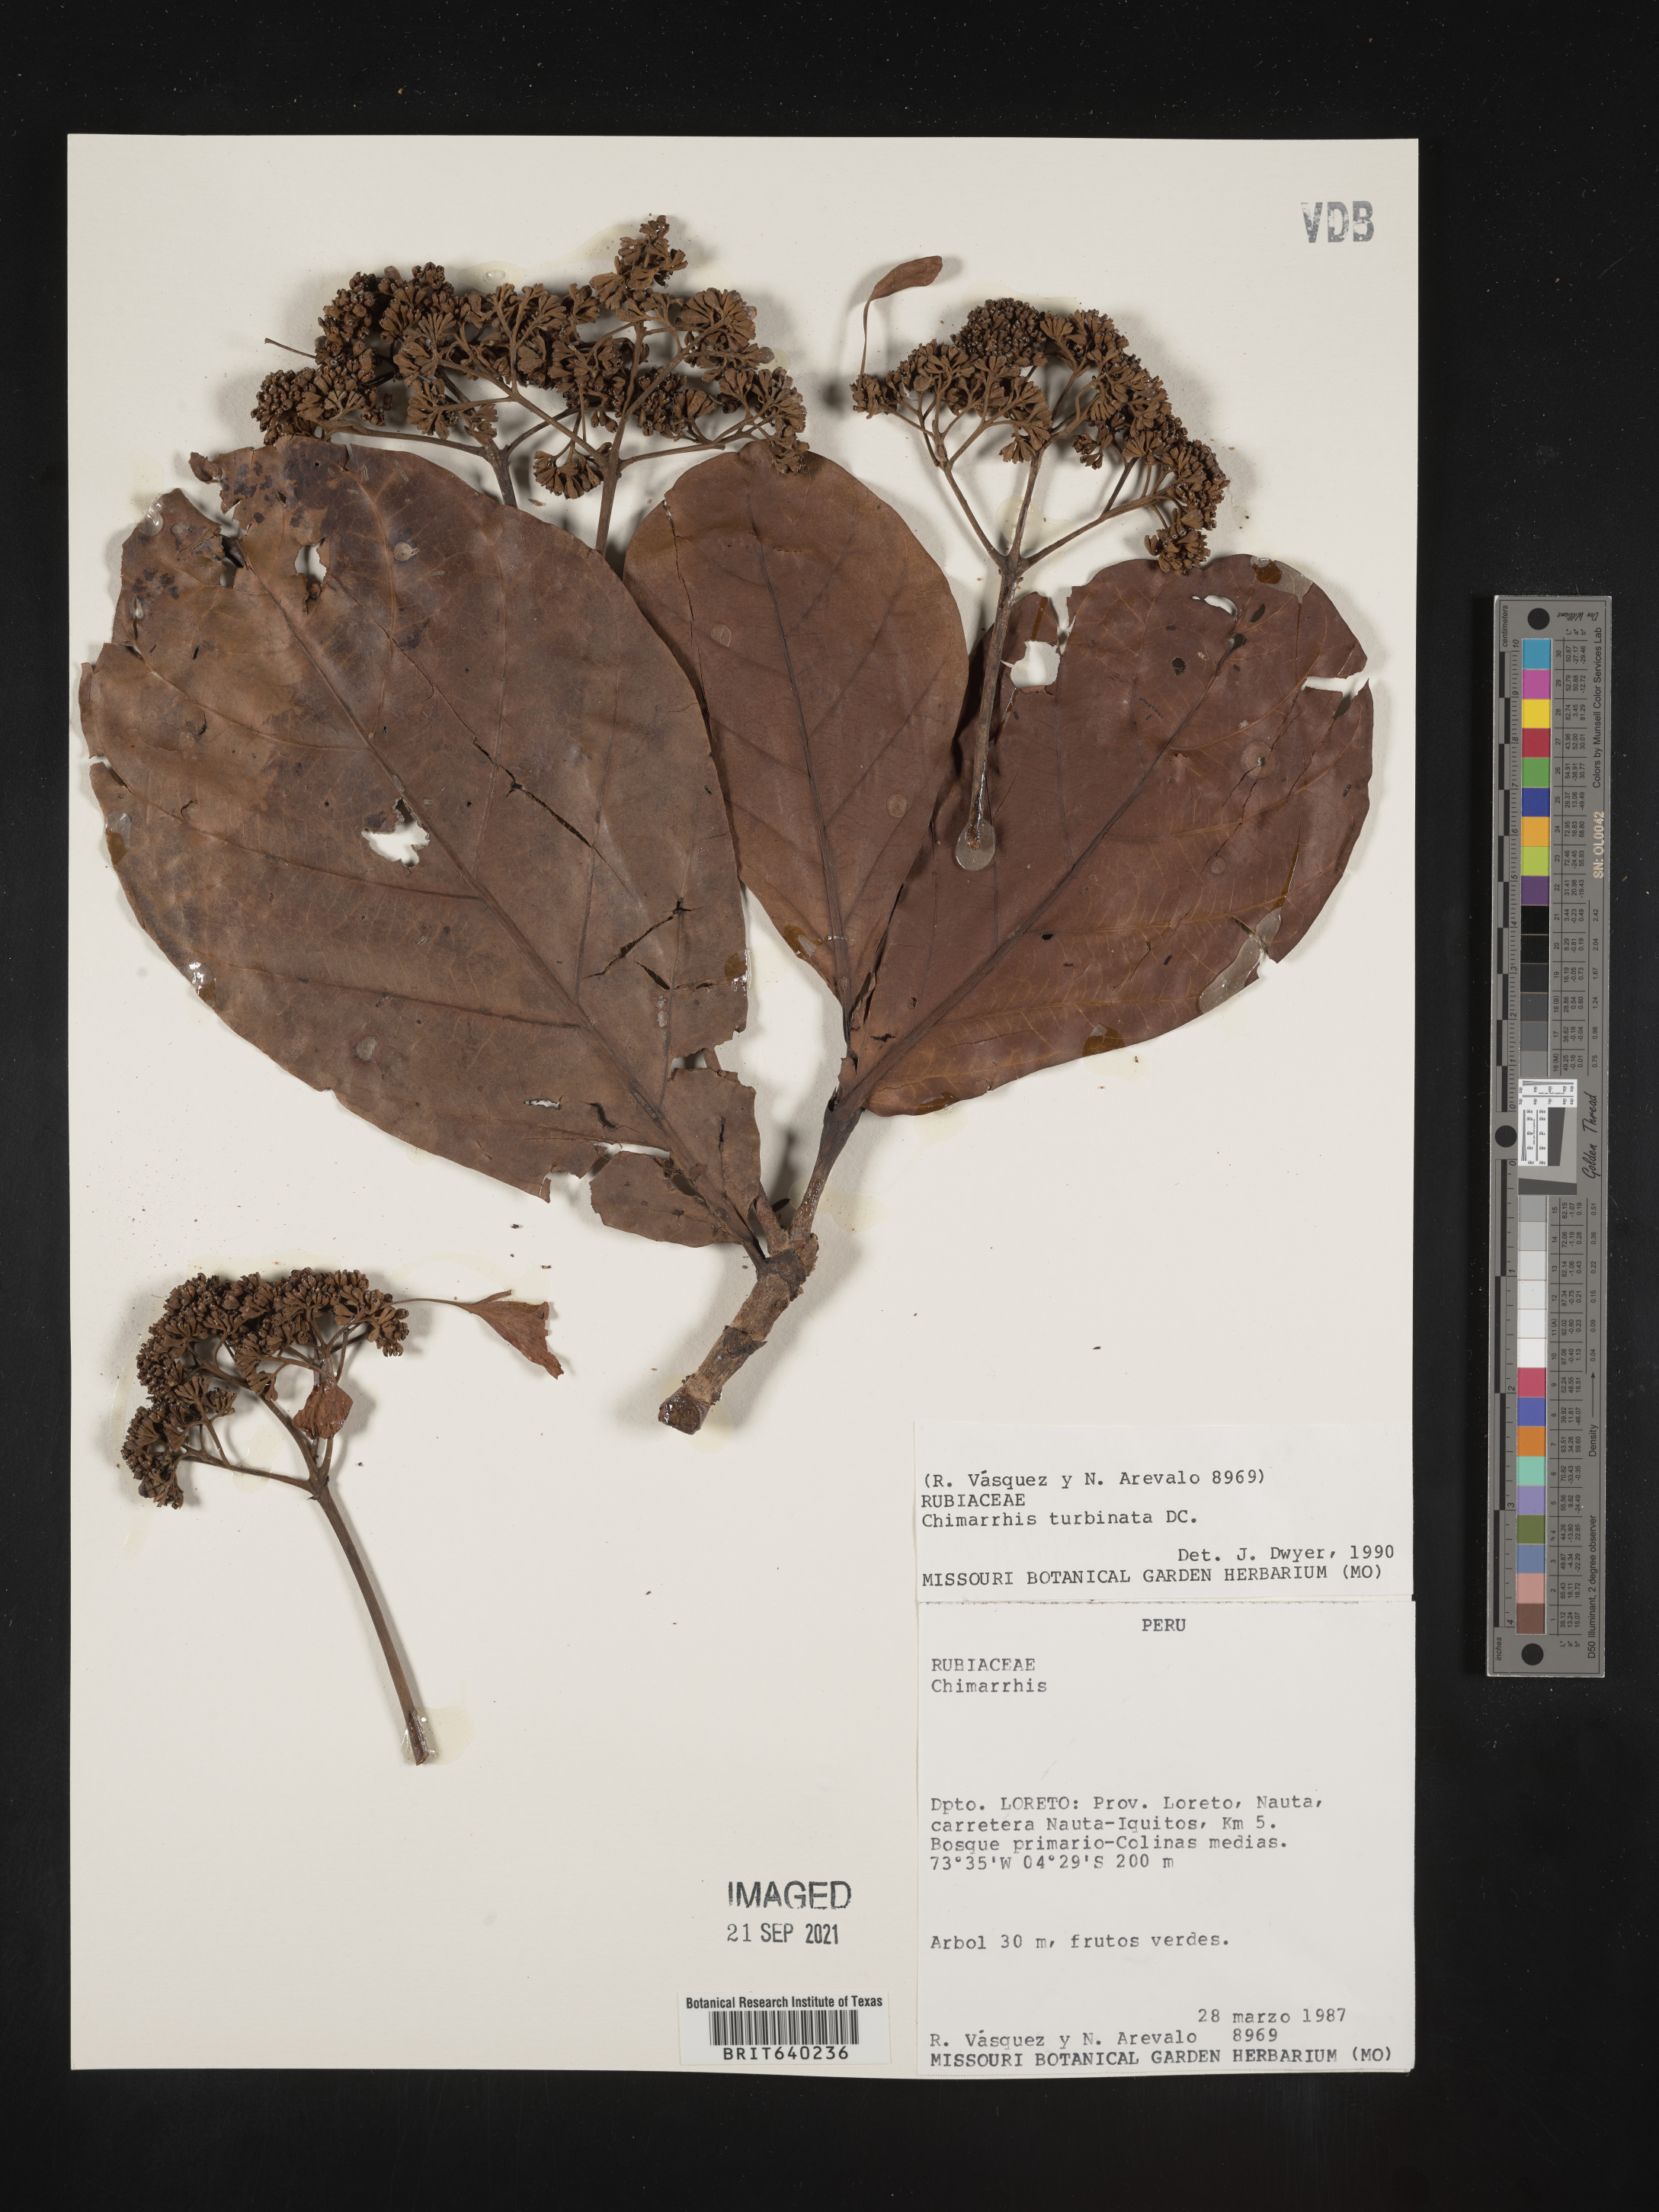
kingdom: Plantae
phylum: Tracheophyta
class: Magnoliopsida
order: Gentianales
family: Rubiaceae
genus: Chimarrhis
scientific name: Chimarrhis
